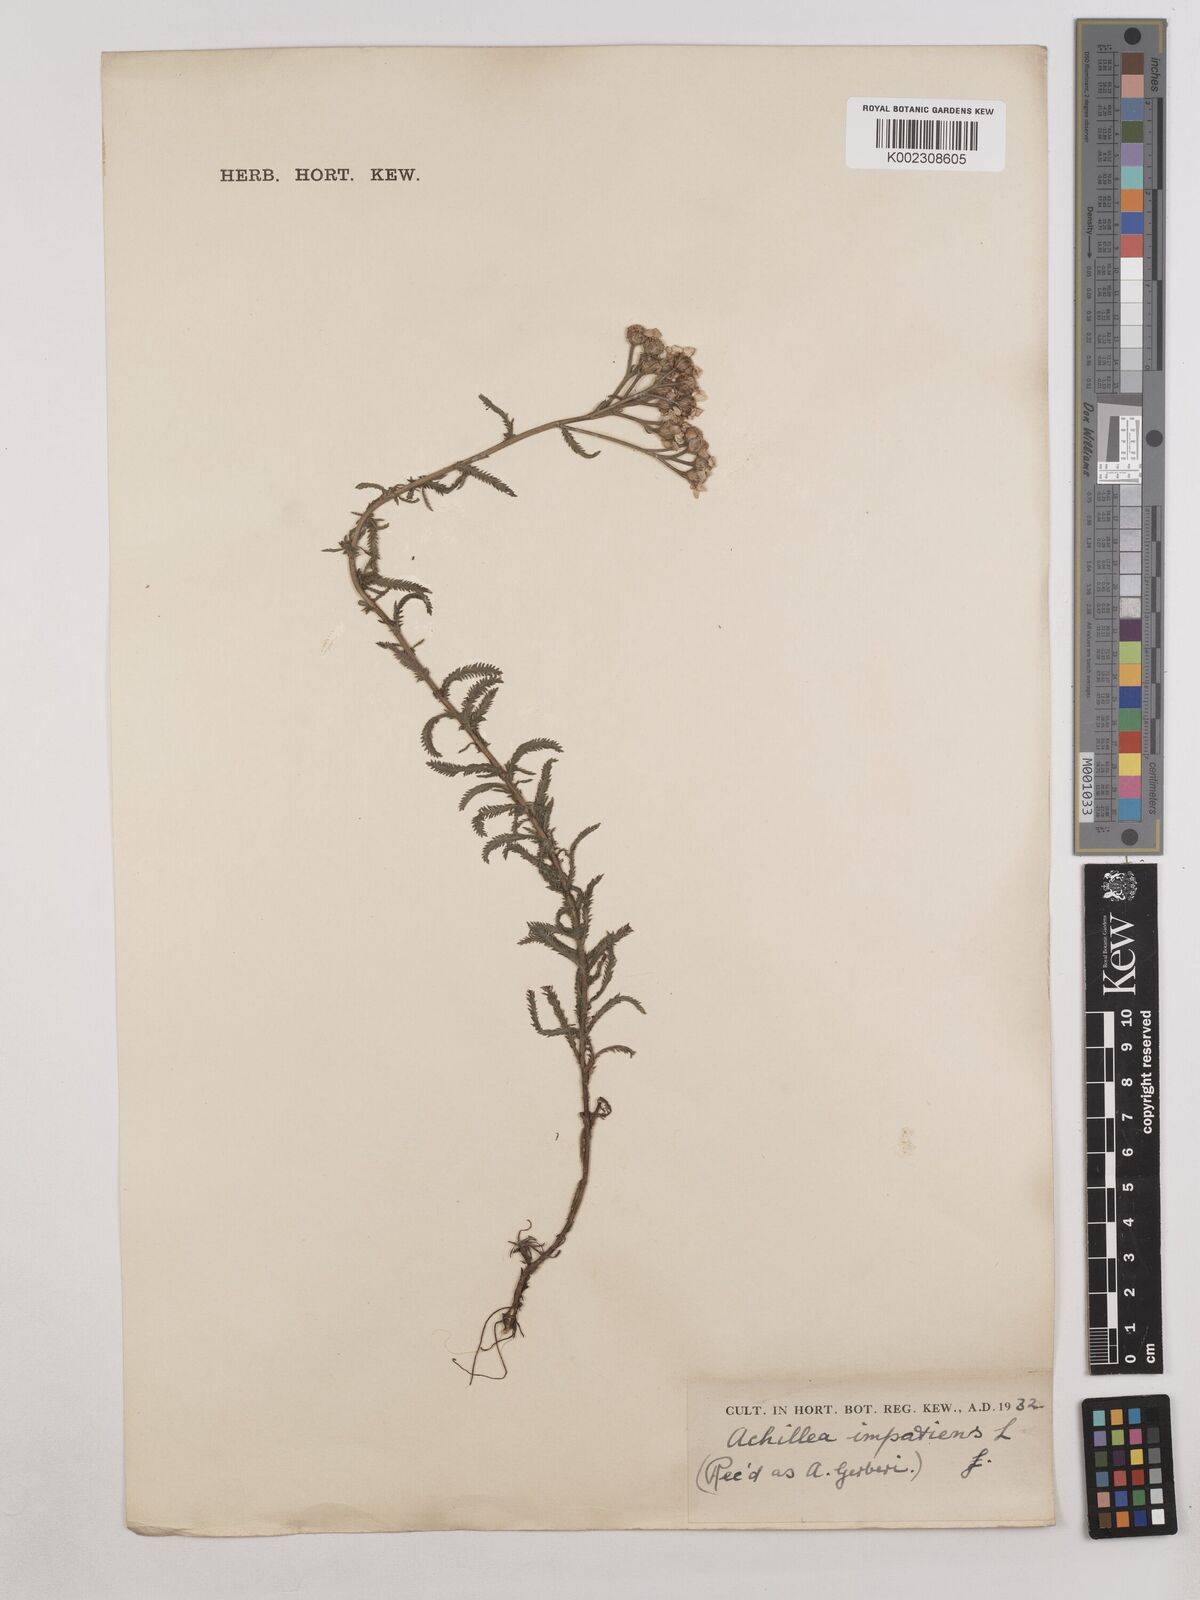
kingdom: Plantae
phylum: Tracheophyta
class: Magnoliopsida
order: Asterales
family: Asteraceae
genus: Achillea
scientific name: Achillea impatiens
